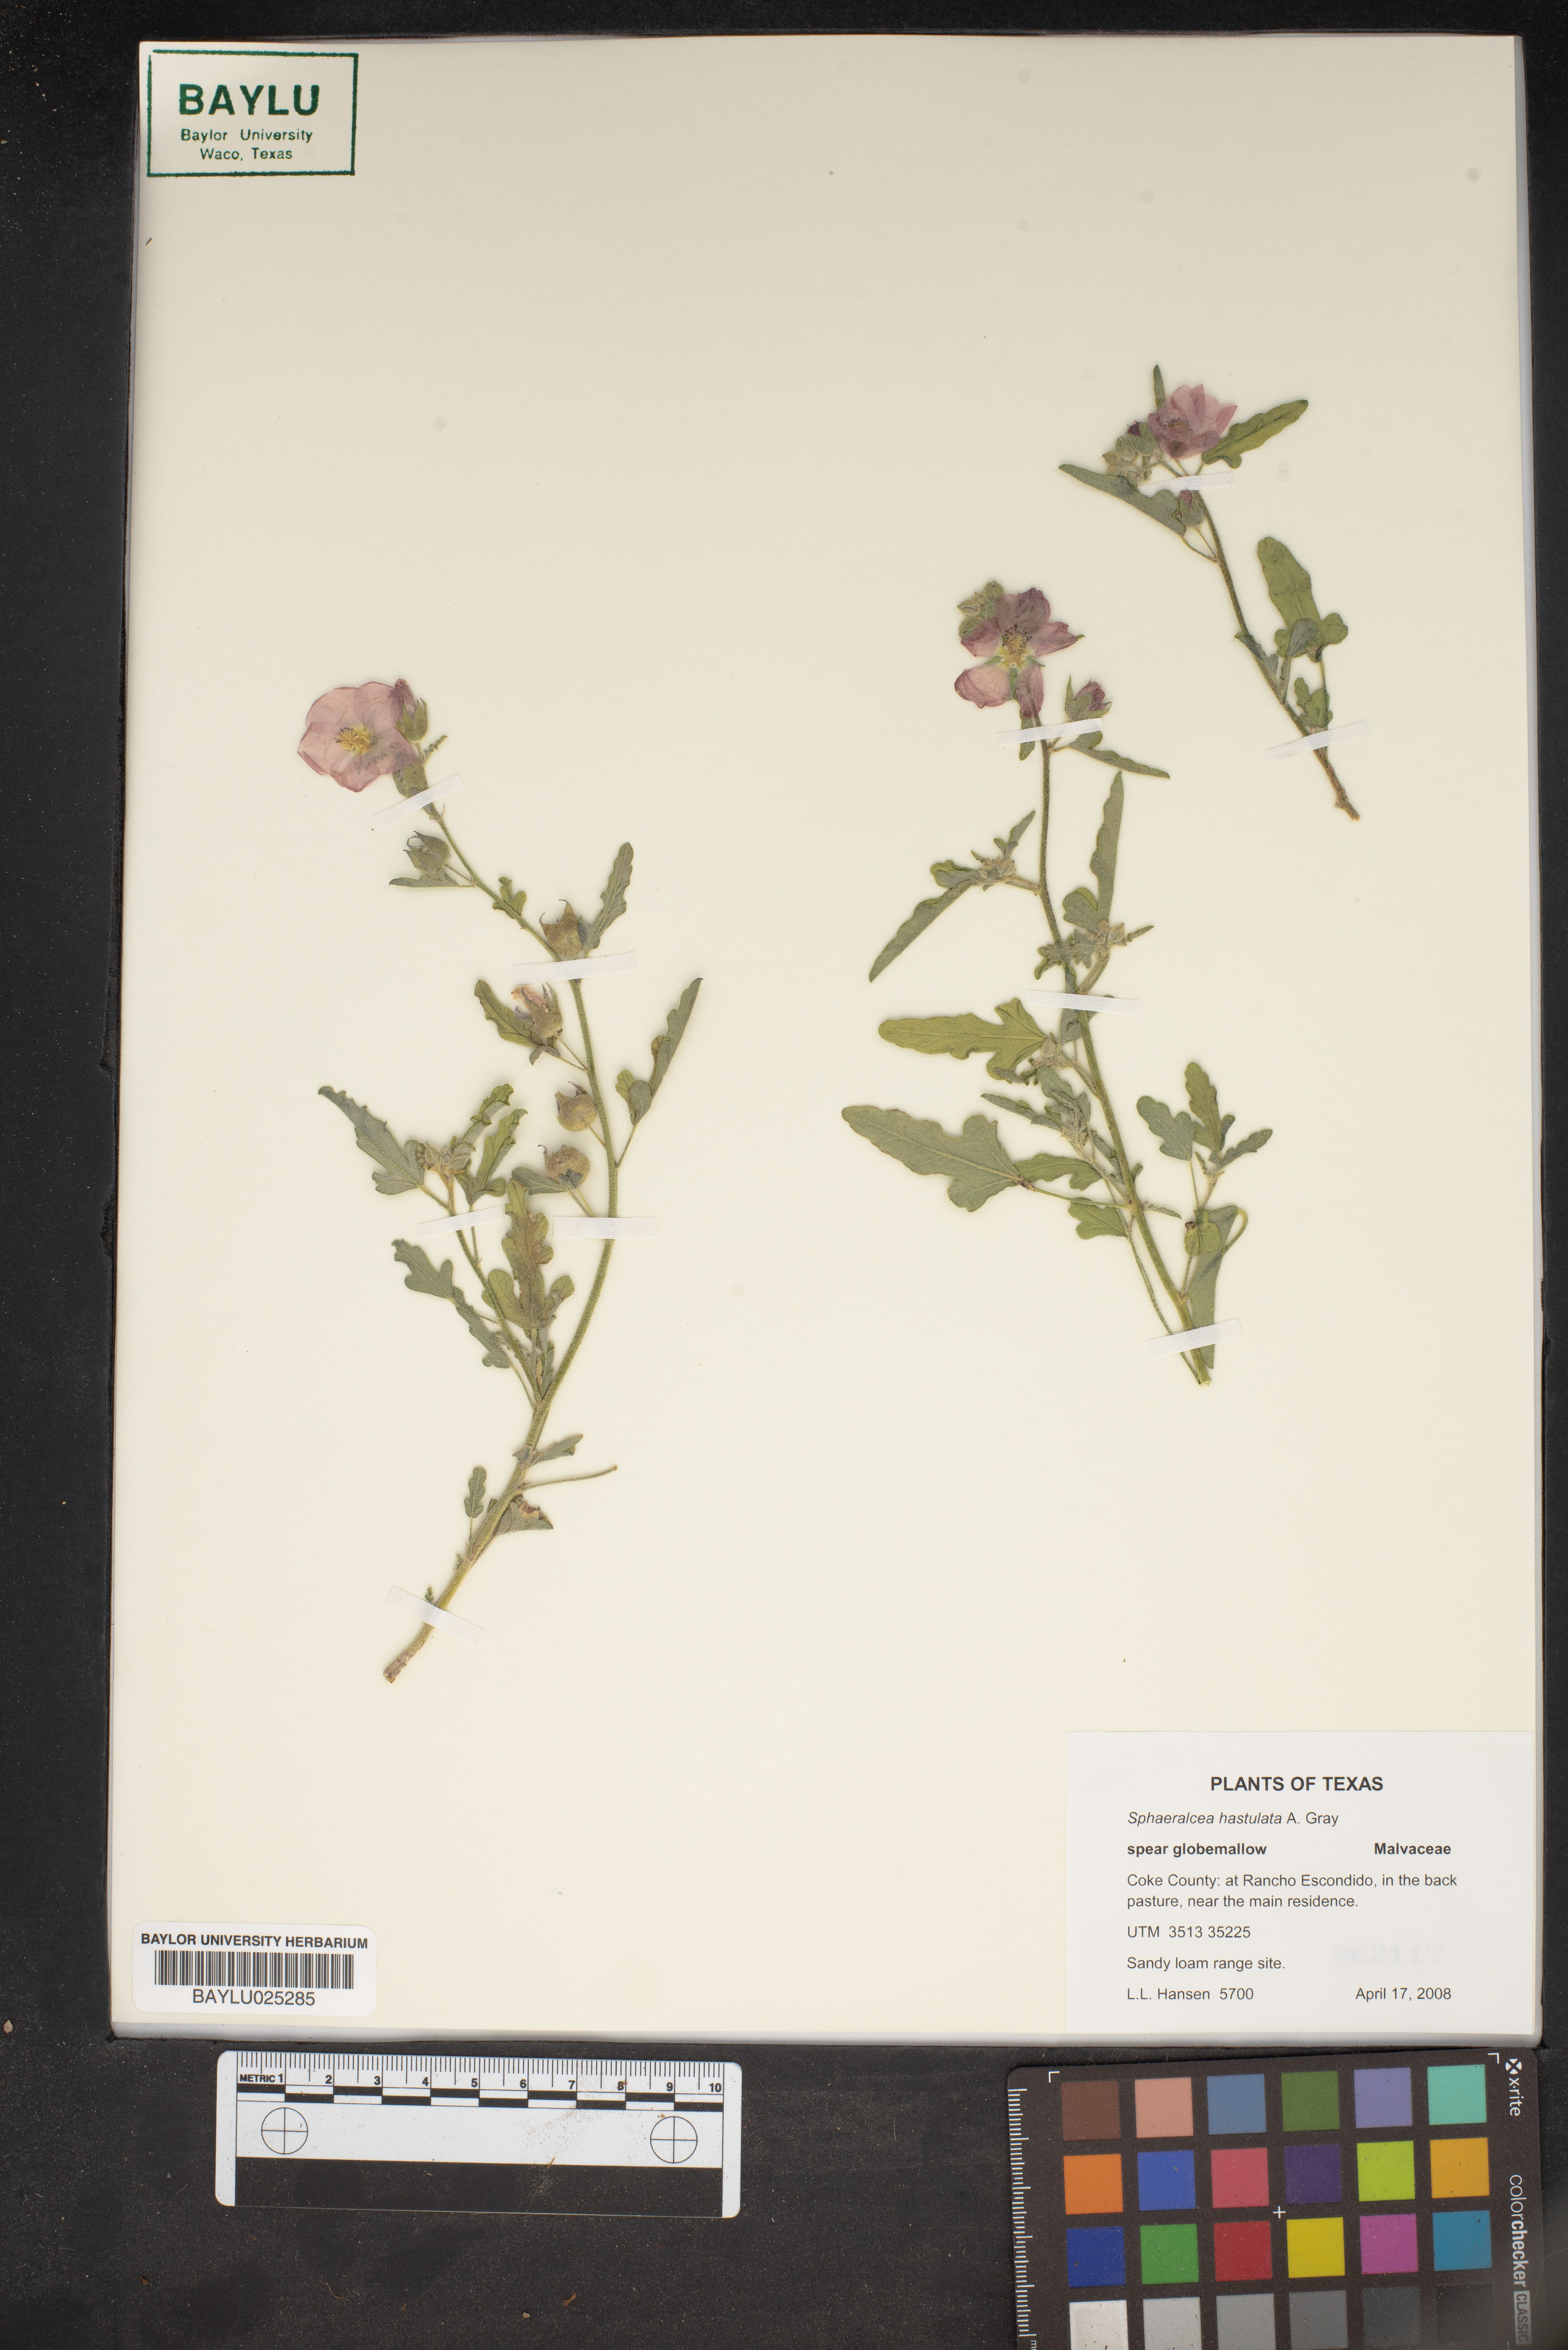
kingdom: Plantae
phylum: Tracheophyta
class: Magnoliopsida
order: Malvales
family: Malvaceae
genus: Sphaeralcea
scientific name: Sphaeralcea hastulata
